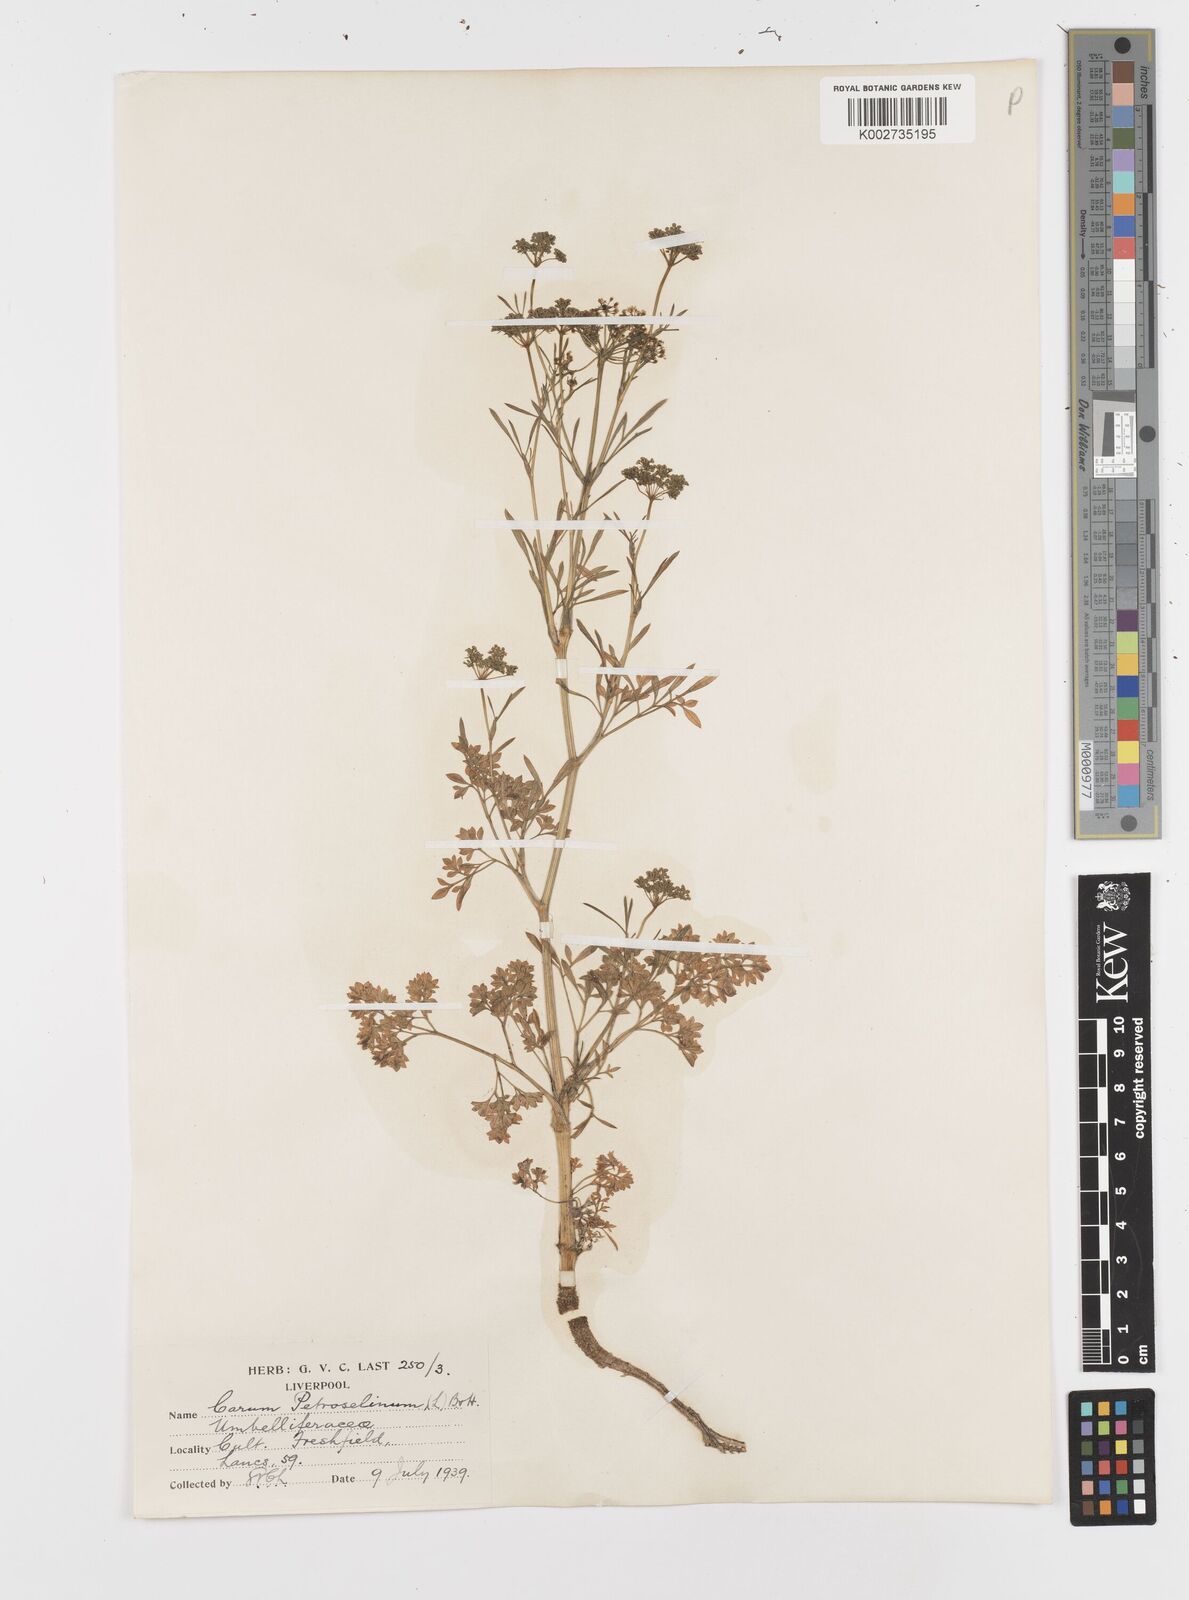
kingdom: Plantae
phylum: Tracheophyta
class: Magnoliopsida
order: Apiales
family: Apiaceae
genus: Petroselinum
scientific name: Petroselinum crispum
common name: Parsley
